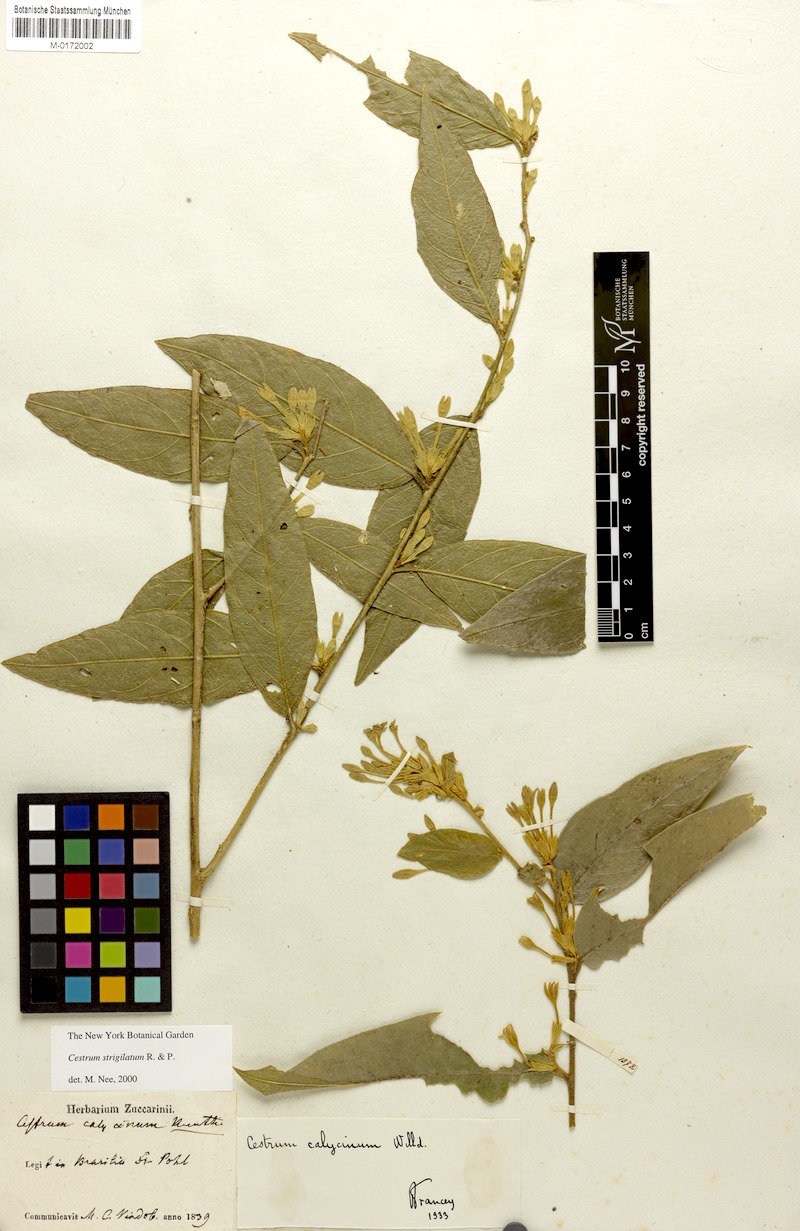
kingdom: Plantae
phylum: Tracheophyta
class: Magnoliopsida
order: Solanales
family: Solanaceae
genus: Cestrum
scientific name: Cestrum strigillatum
